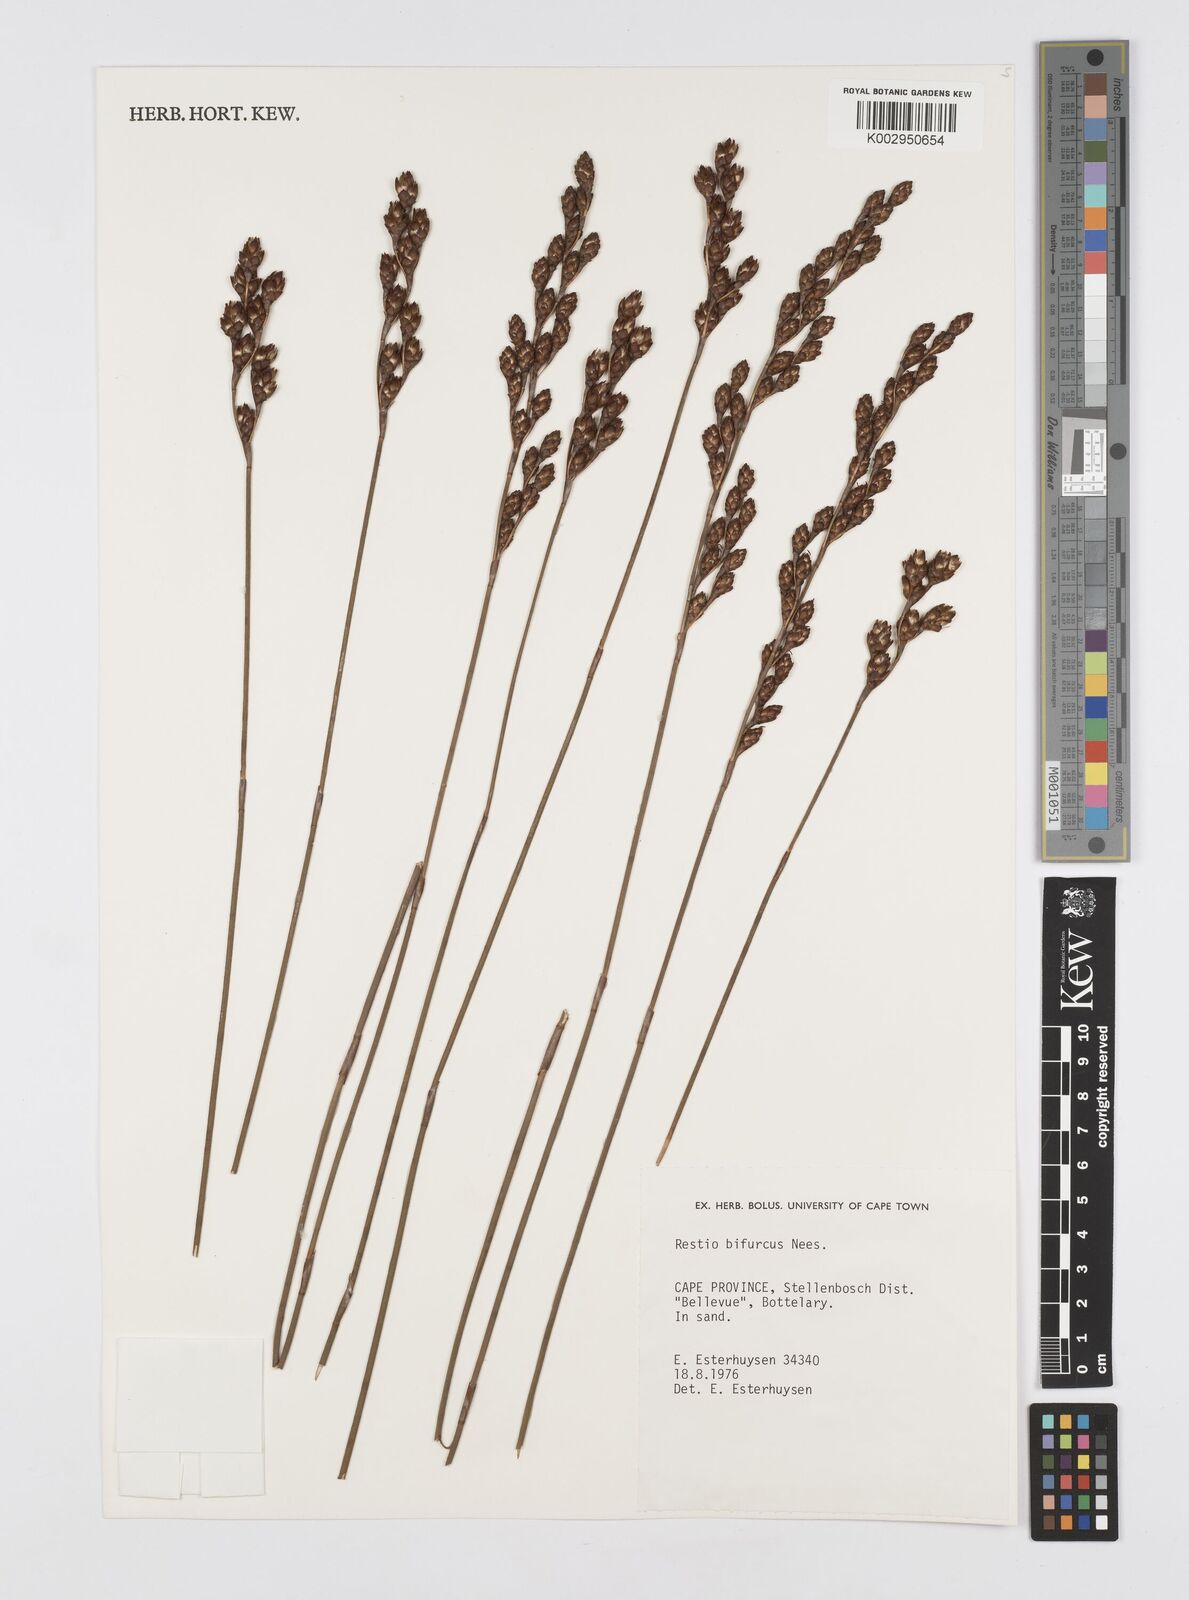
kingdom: Plantae
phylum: Tracheophyta
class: Liliopsida
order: Poales
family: Restionaceae
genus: Restio
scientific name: Restio bifurcus
